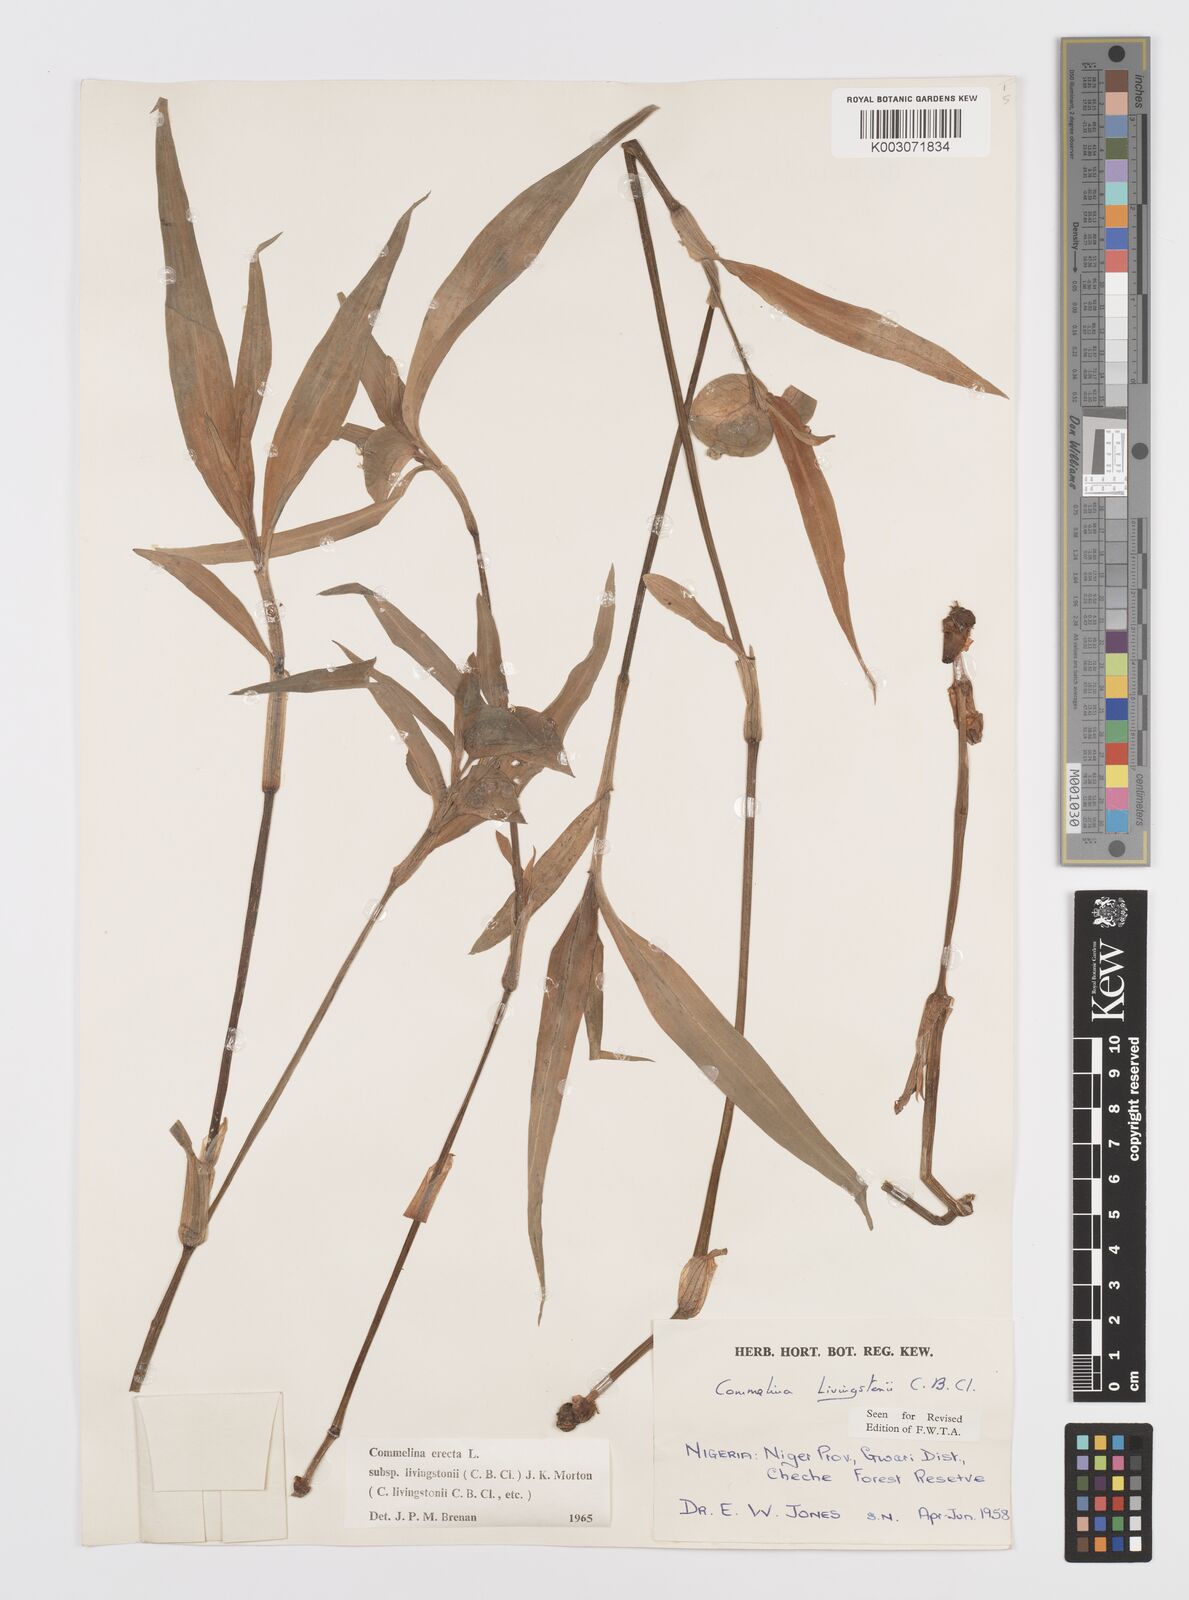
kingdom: Plantae
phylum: Tracheophyta
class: Liliopsida
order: Commelinales
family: Commelinaceae
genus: Commelina
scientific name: Commelina erecta
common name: Blousel blommetjie
